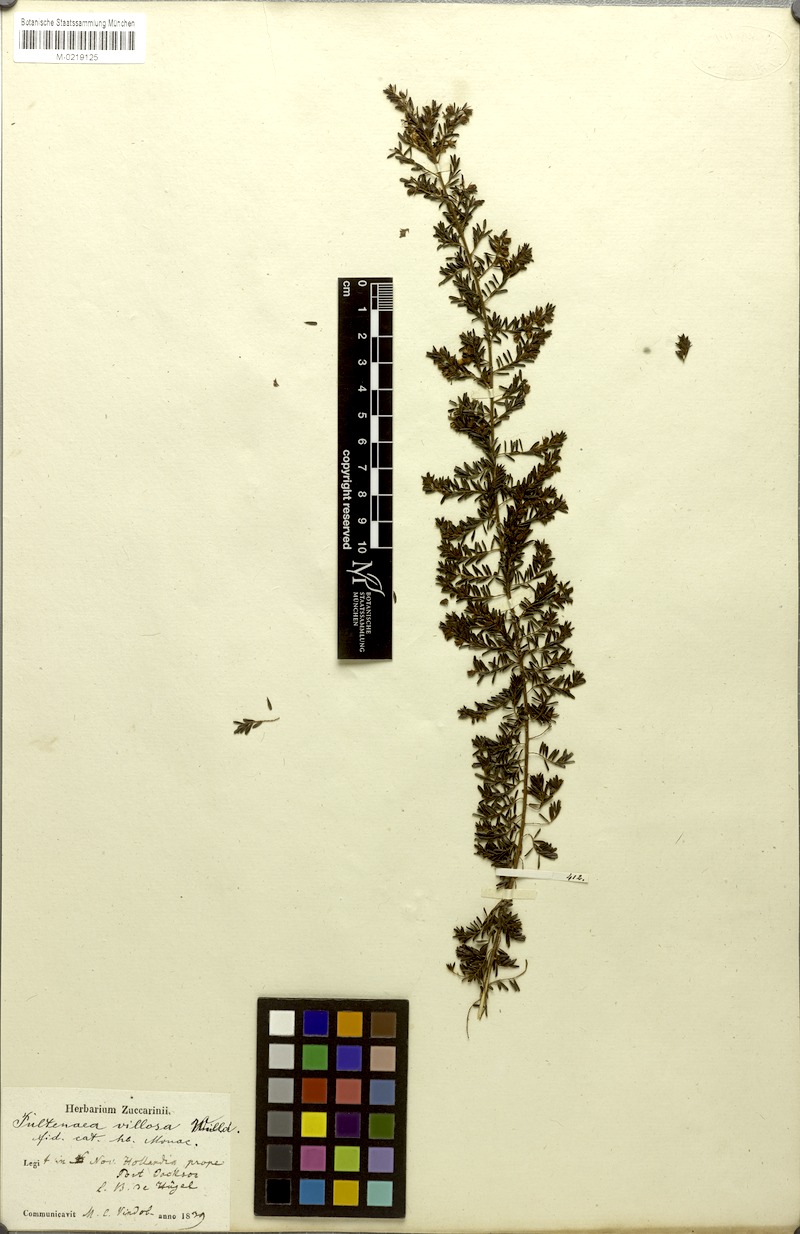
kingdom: Plantae
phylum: Tracheophyta
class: Magnoliopsida
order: Fabales
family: Fabaceae
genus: Pultenaea
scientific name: Pultenaea villosa
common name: Bronze bush-pea
